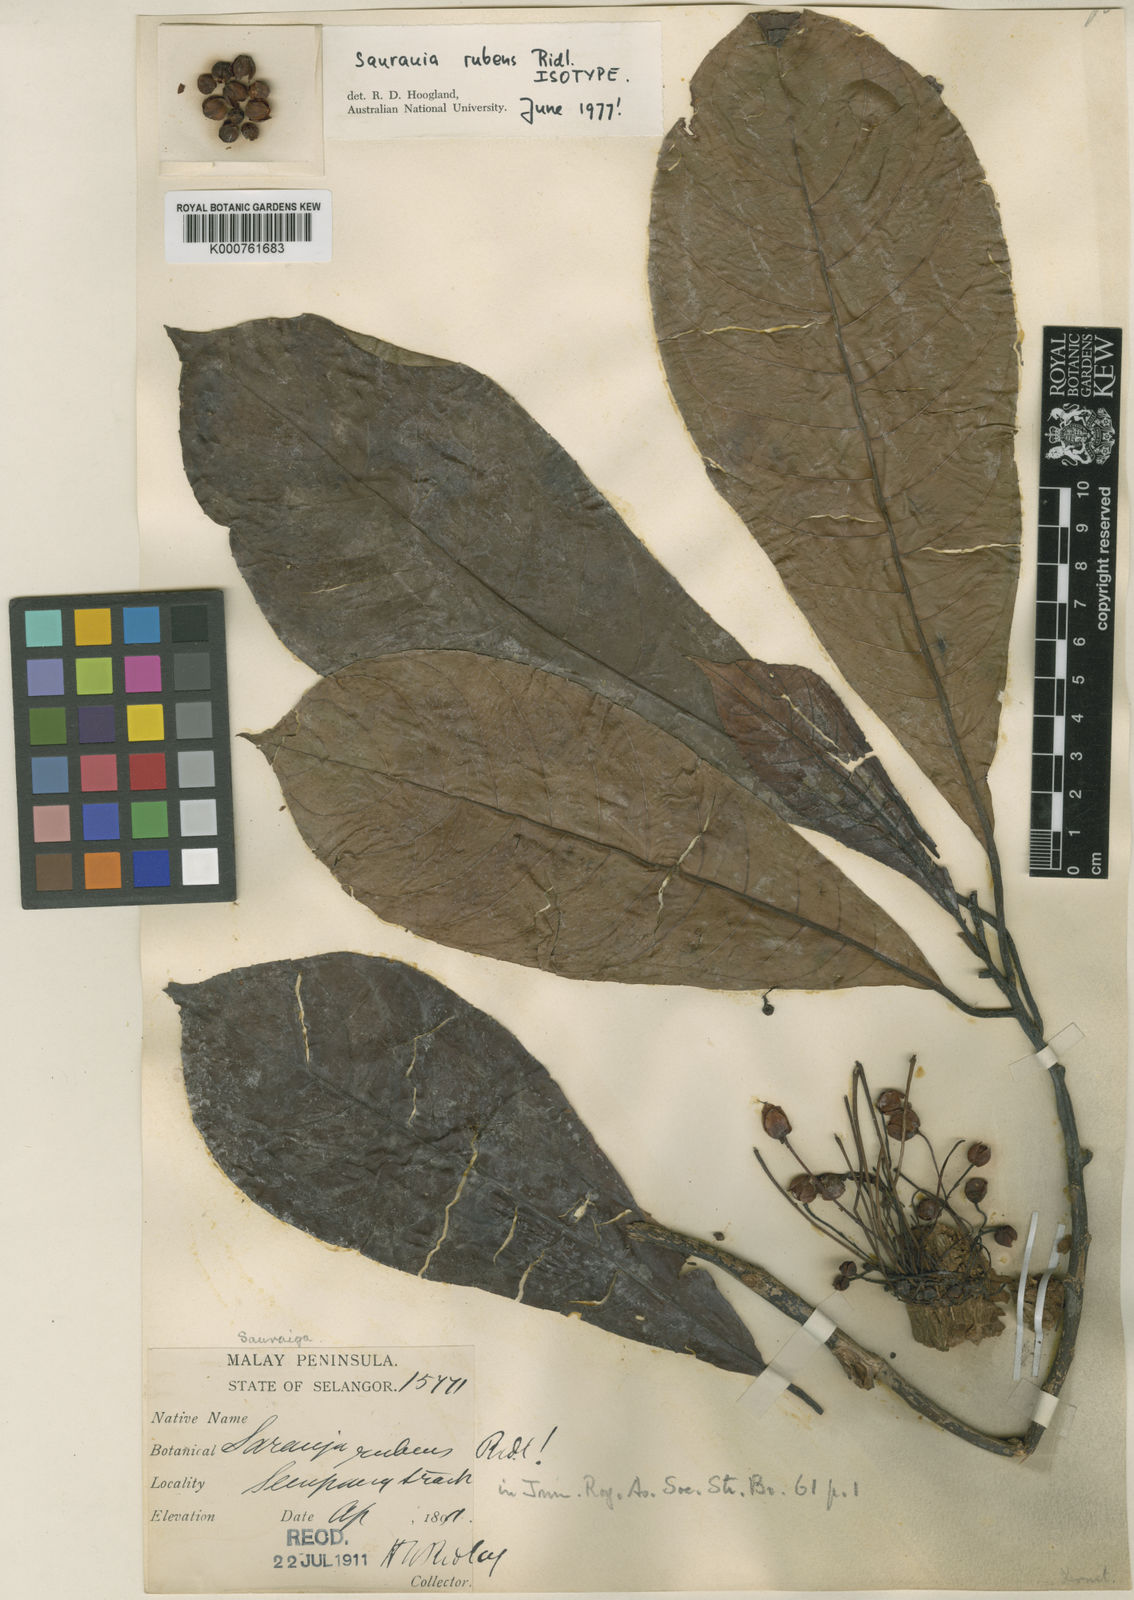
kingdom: Plantae
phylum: Tracheophyta
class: Magnoliopsida
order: Ericales
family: Actinidiaceae
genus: Saurauia
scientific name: Saurauia rubens
